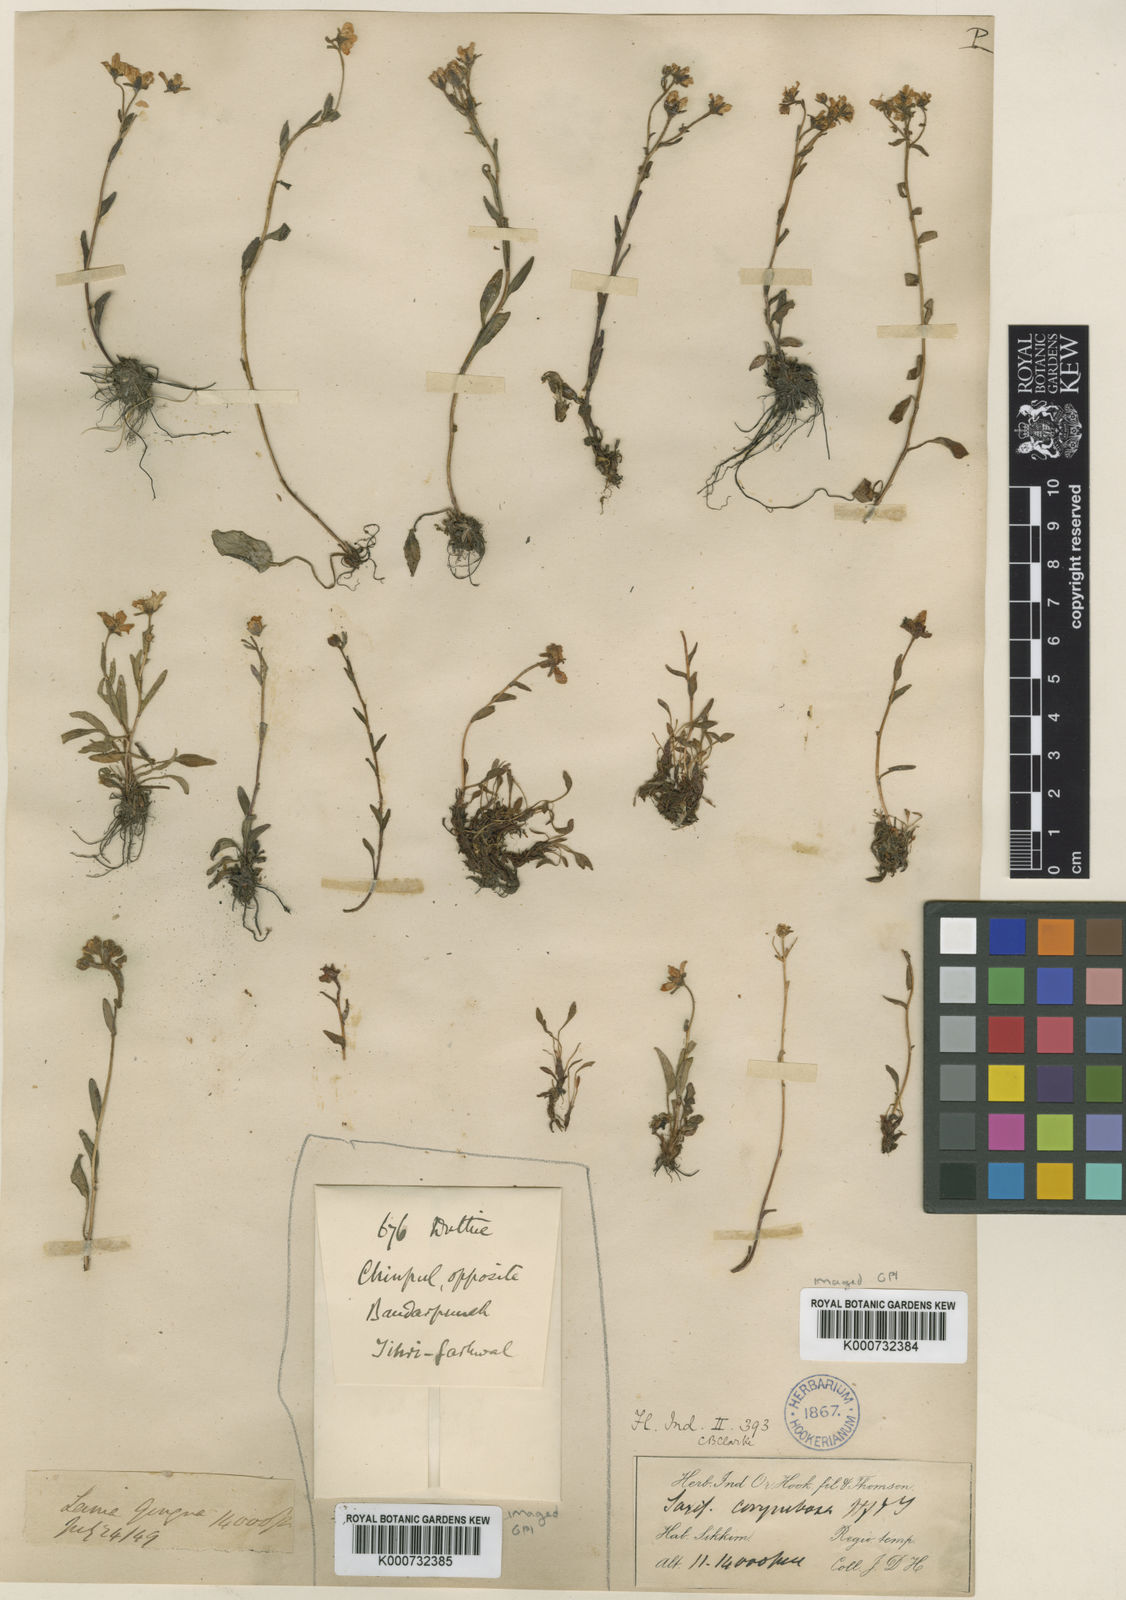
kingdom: Plantae
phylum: Tracheophyta
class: Magnoliopsida
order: Saxifragales
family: Saxifragaceae
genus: Saxifraga
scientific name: Saxifraga granulata
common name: Meadow saxifrage
